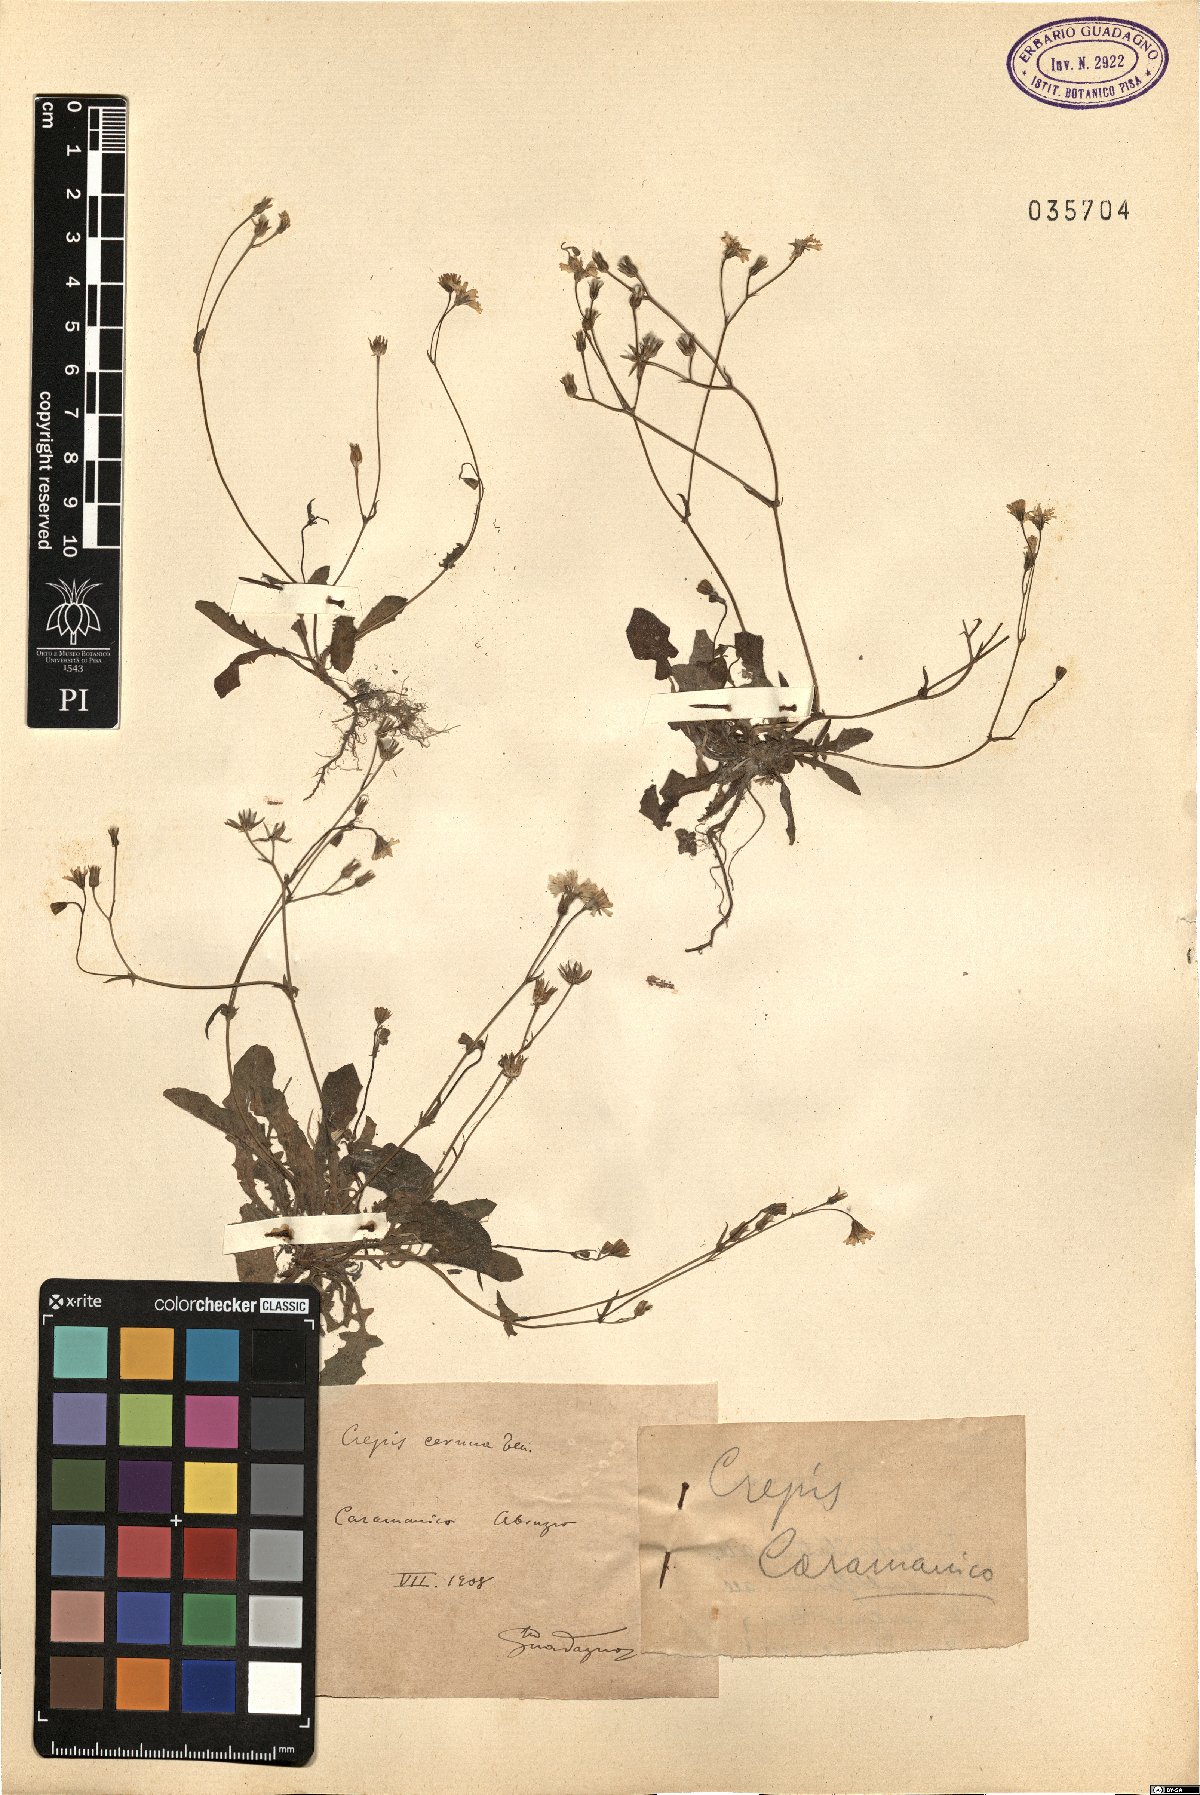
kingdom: Plantae
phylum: Tracheophyta
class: Magnoliopsida
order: Asterales
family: Asteraceae
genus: Crepis
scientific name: Crepis neglecta
